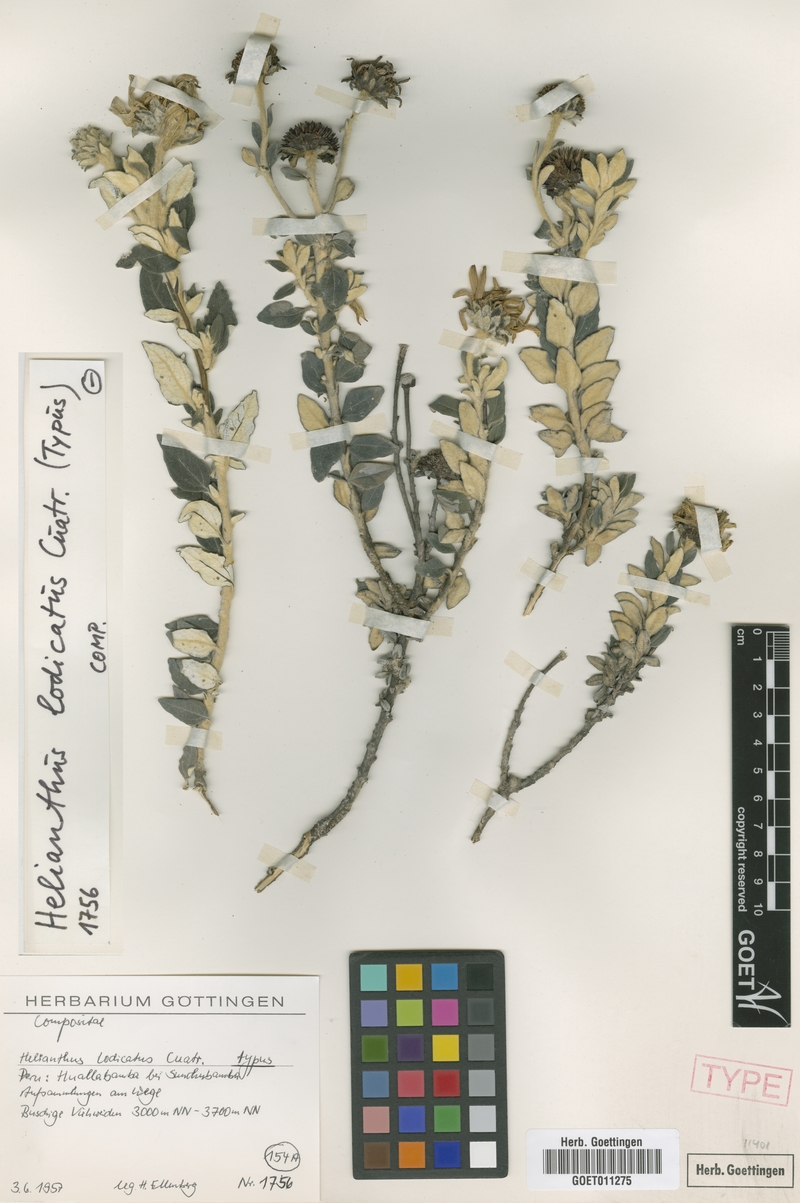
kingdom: Plantae
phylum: Tracheophyta
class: Magnoliopsida
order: Asterales
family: Asteraceae
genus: Pappobolus
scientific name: Pappobolus lodicatus
